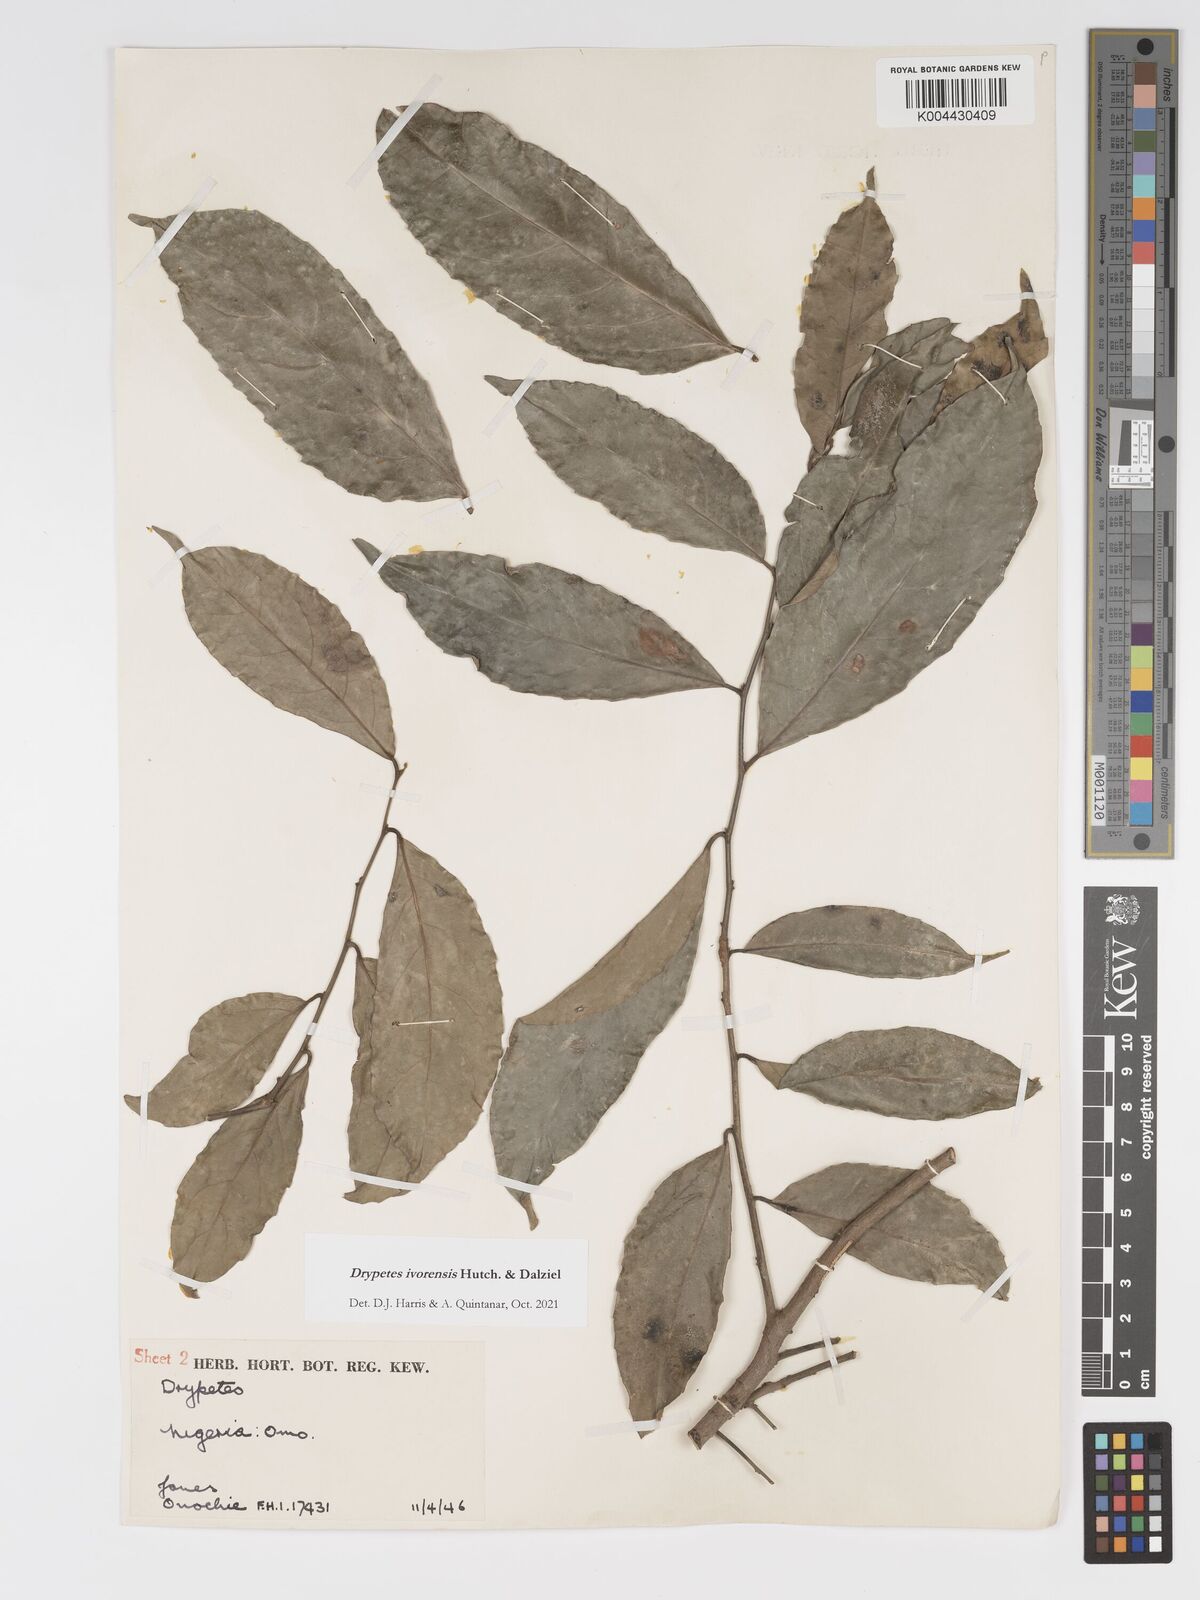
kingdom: Plantae
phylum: Tracheophyta
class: Magnoliopsida
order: Malpighiales
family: Putranjivaceae
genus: Drypetes
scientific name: Drypetes ivorensis
